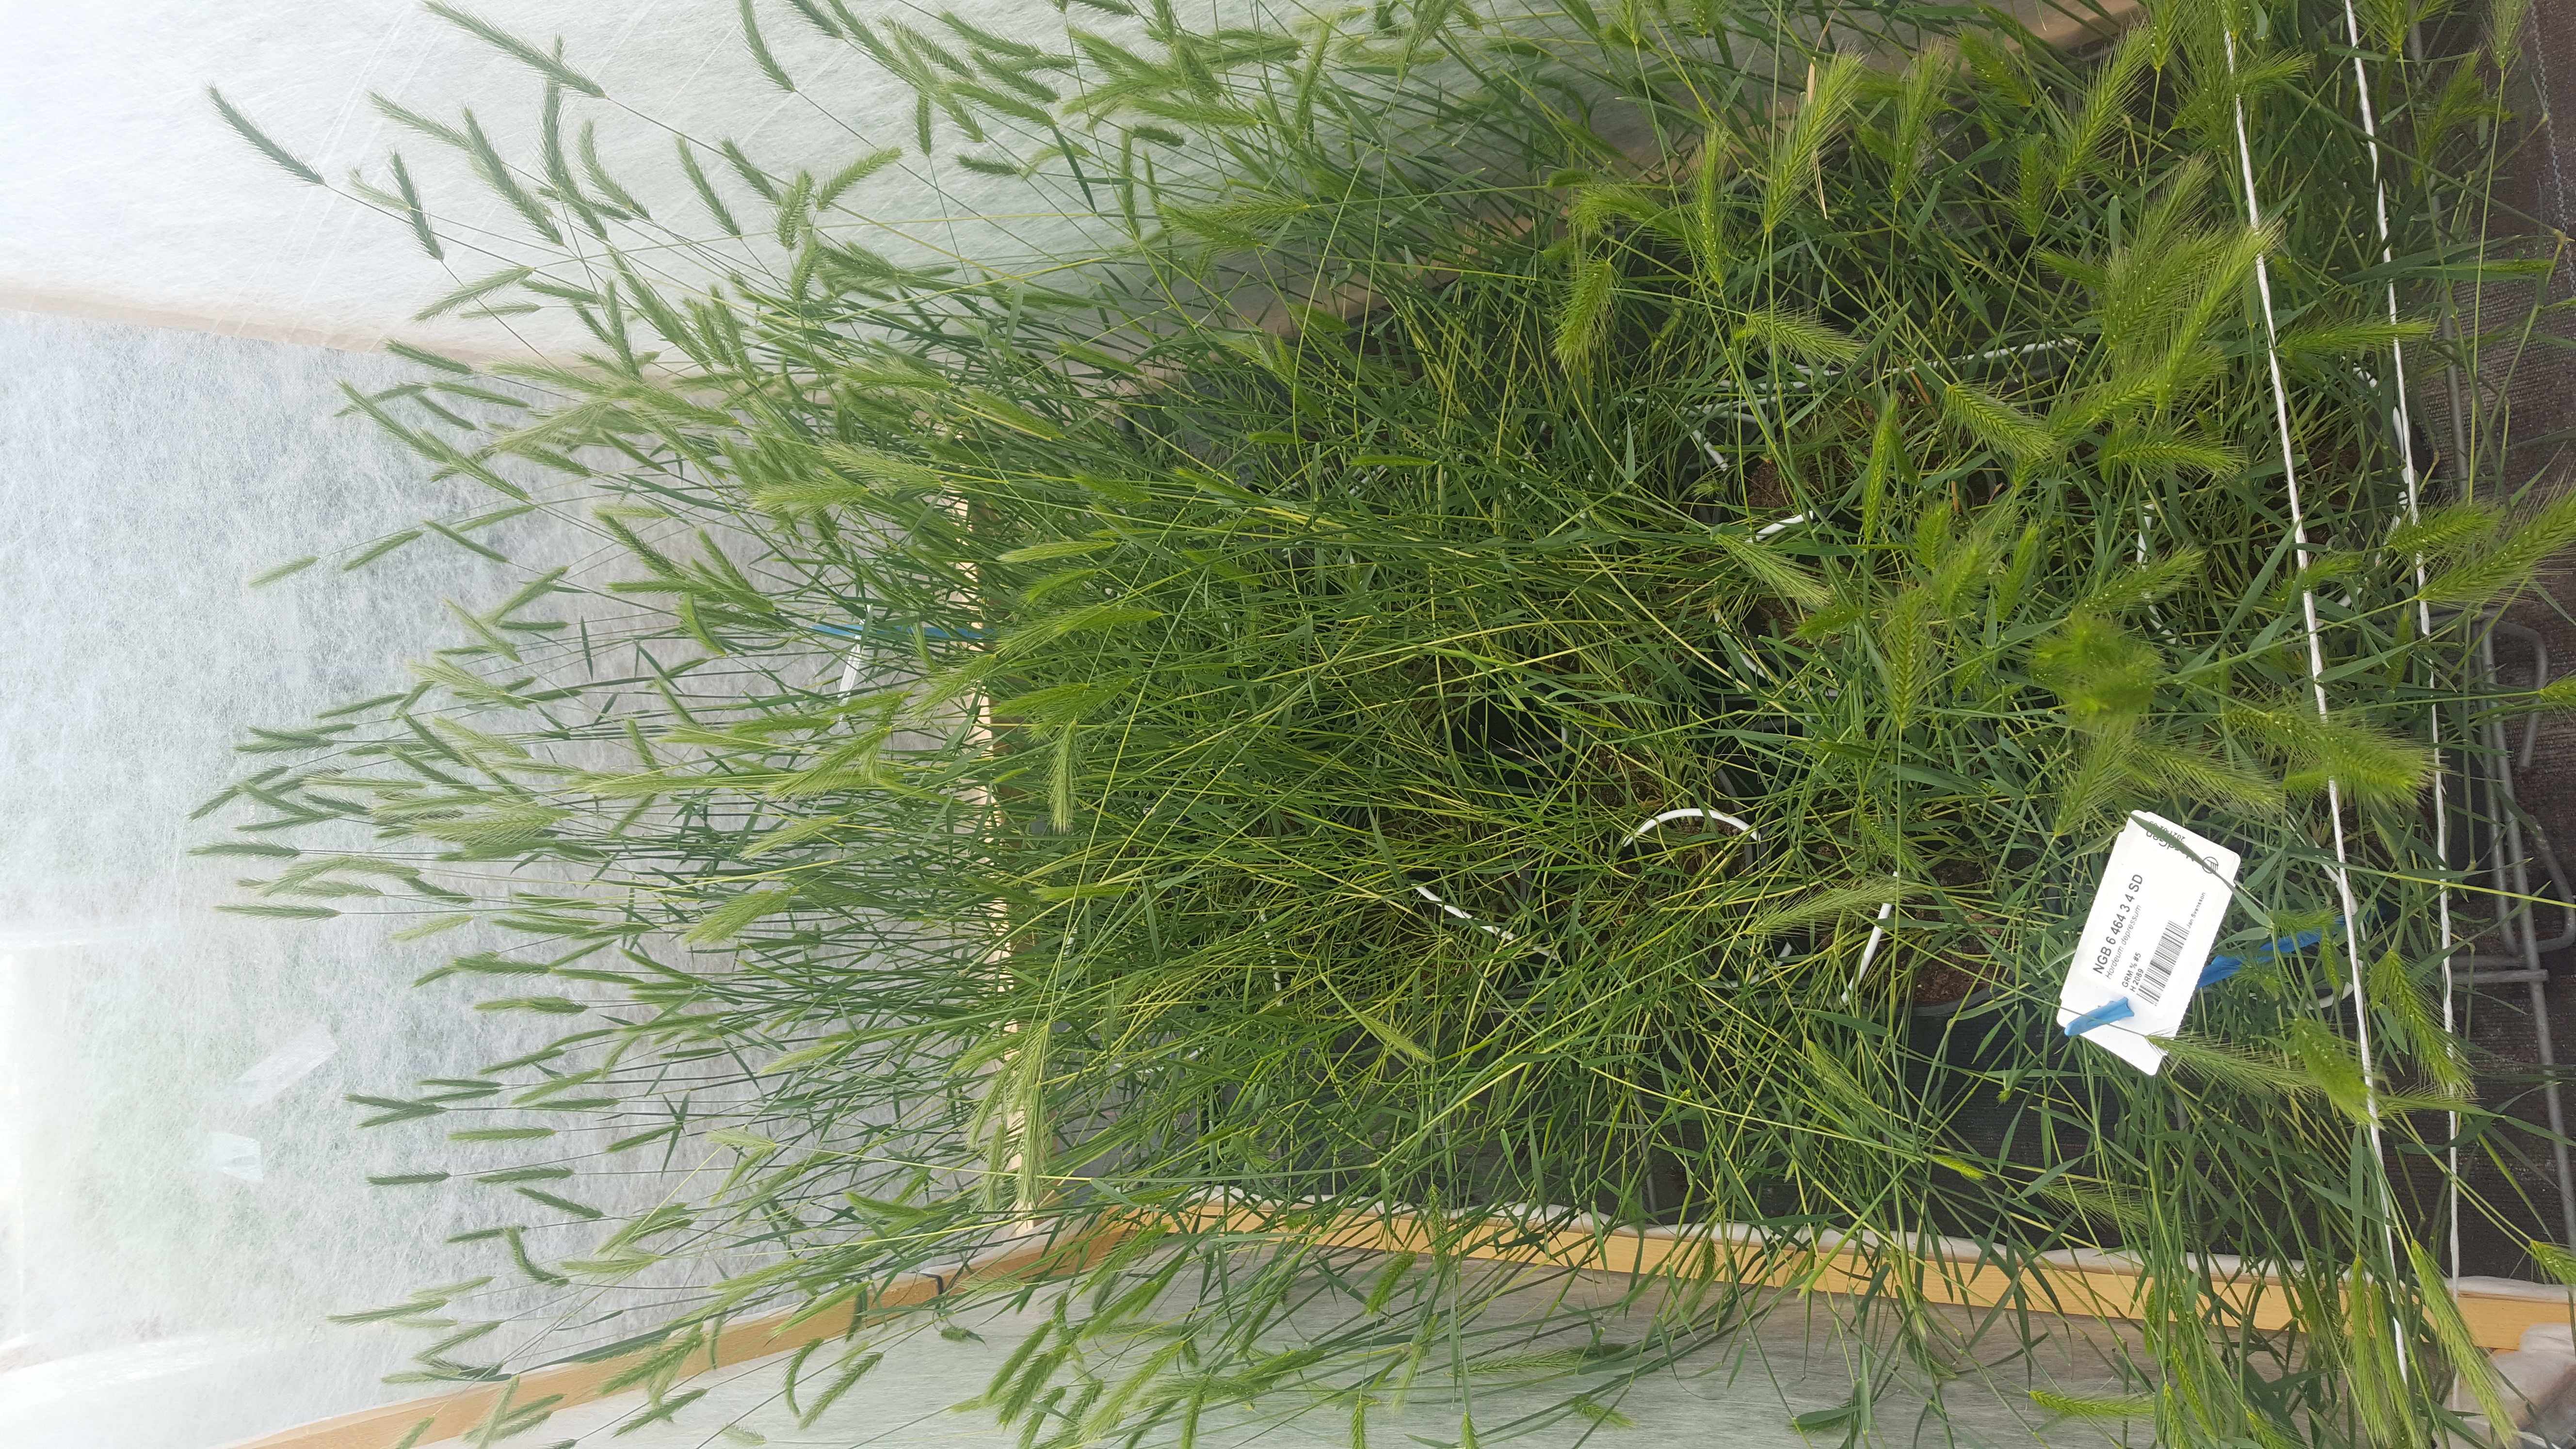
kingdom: Plantae
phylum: Tracheophyta
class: Liliopsida
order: Poales
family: Poaceae
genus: Hordeum
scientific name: Hordeum depressum
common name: Low barley
